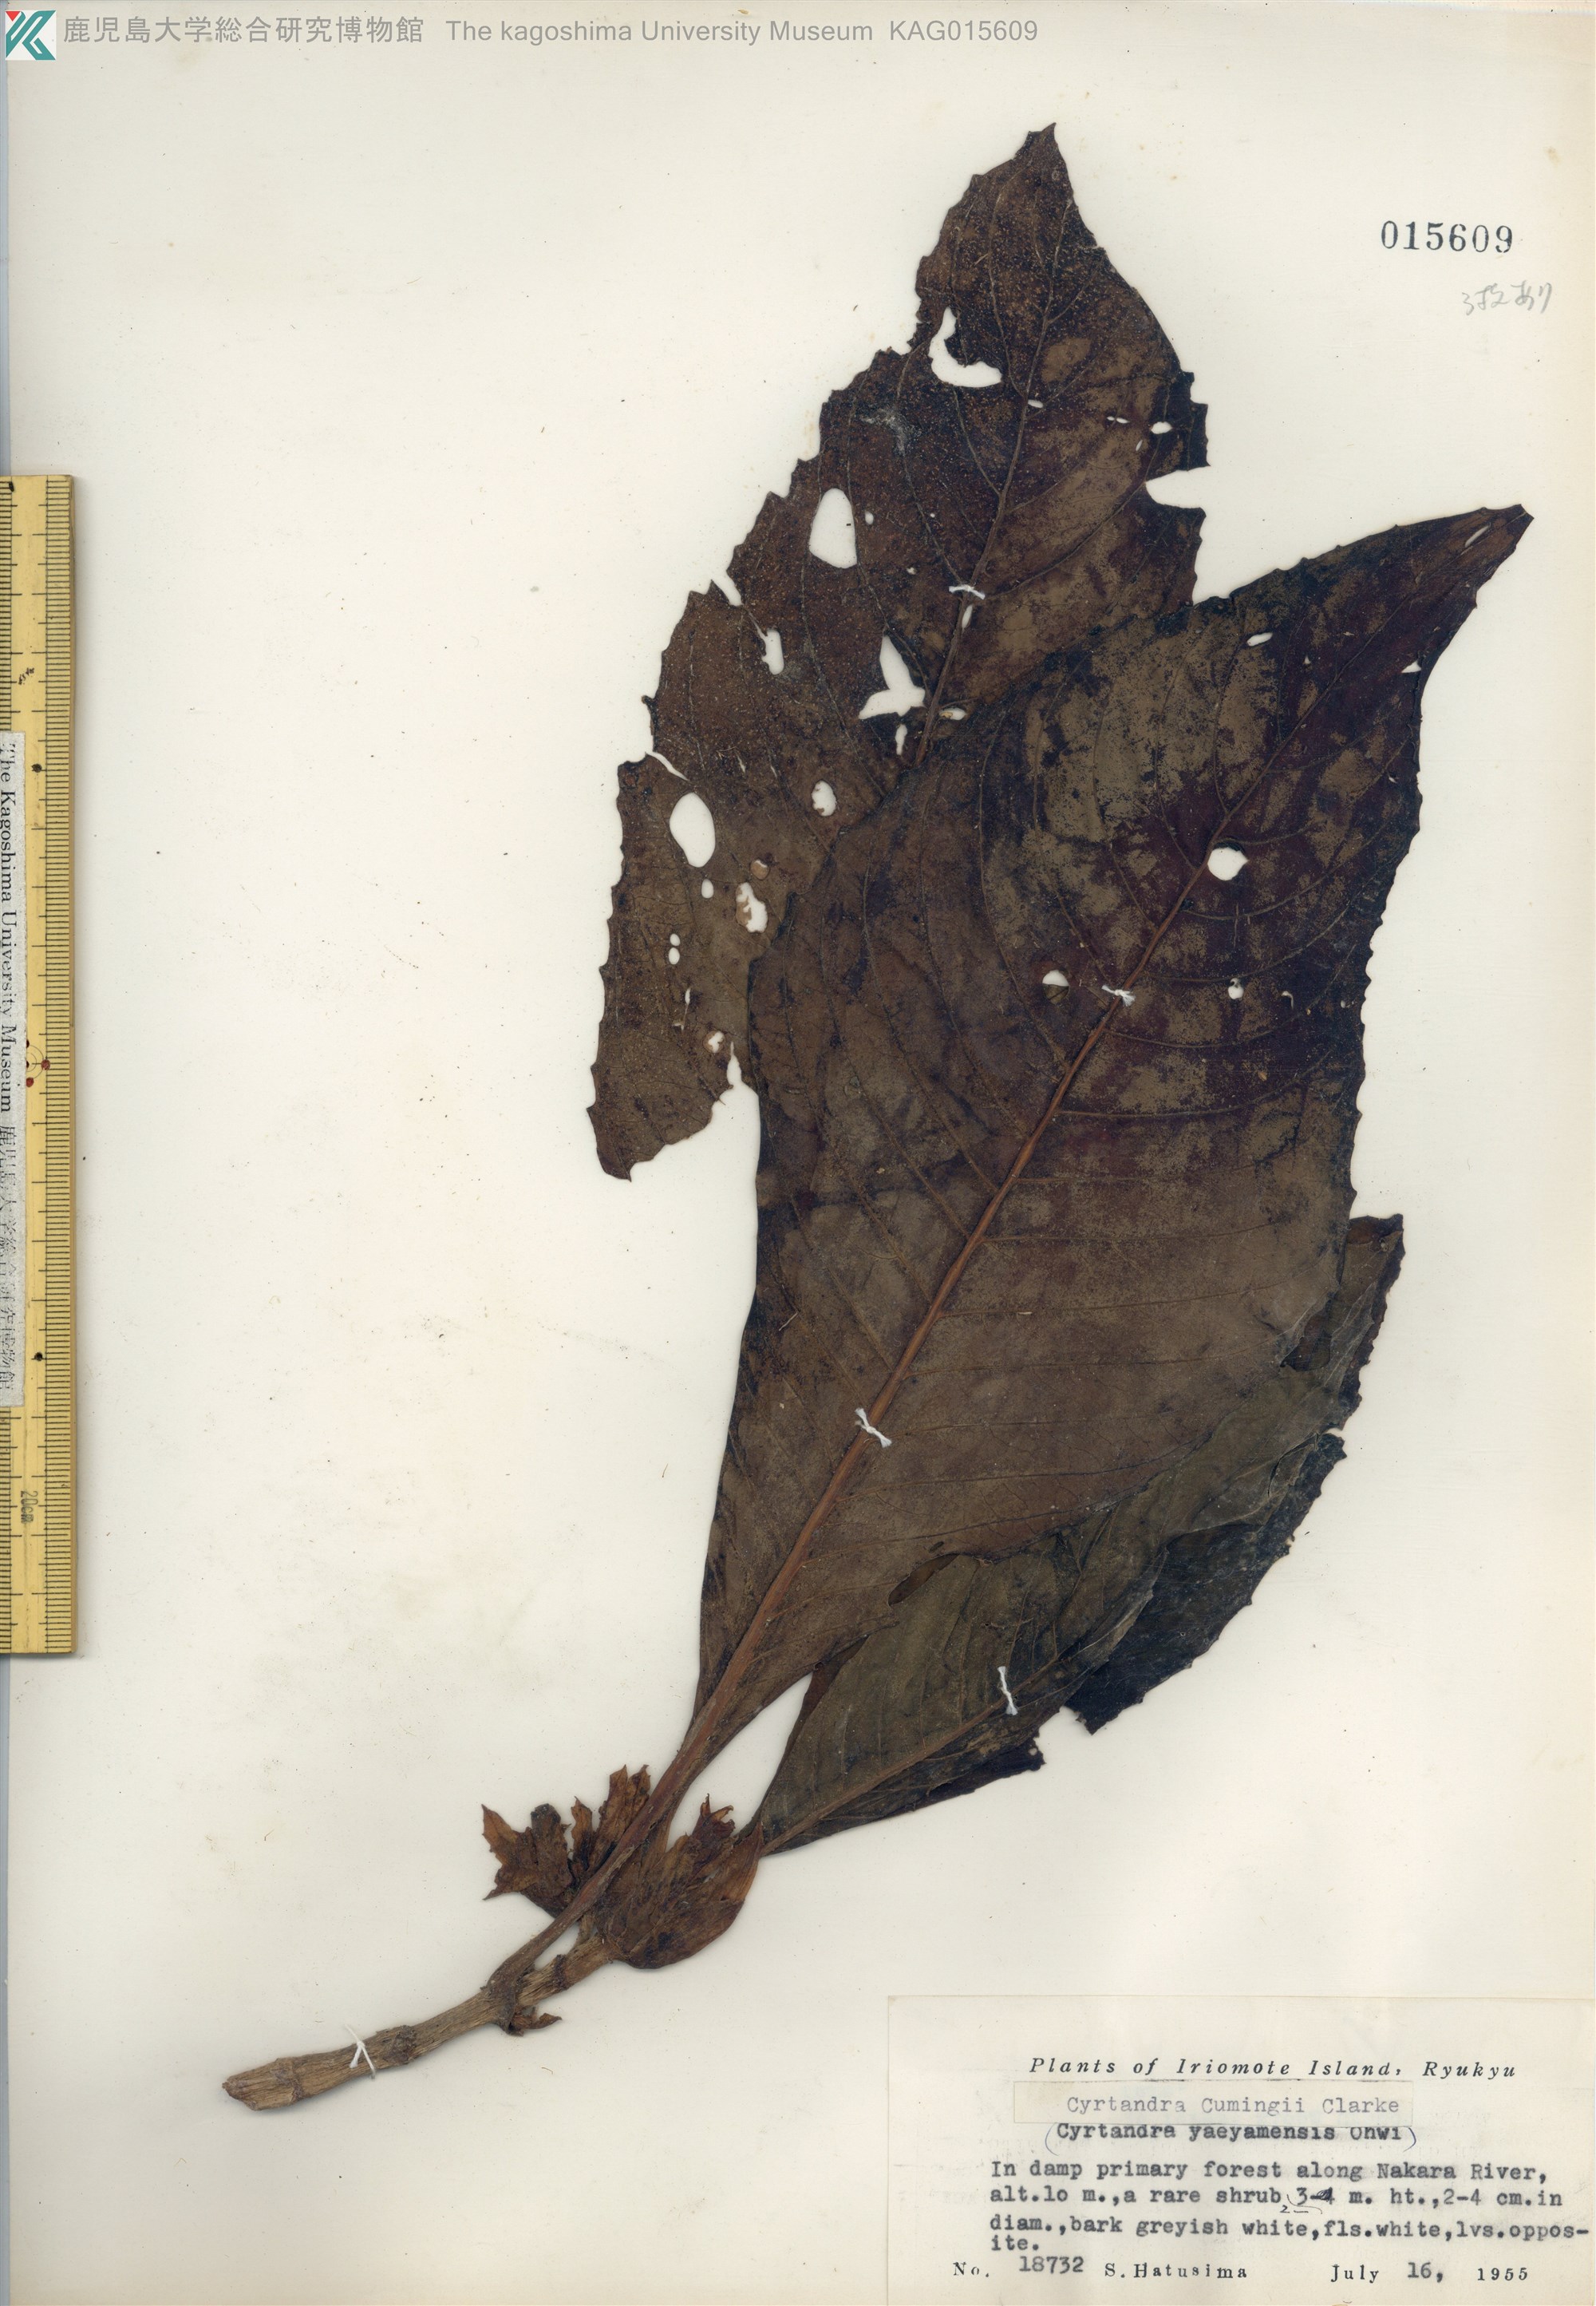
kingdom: Plantae
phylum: Tracheophyta
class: Magnoliopsida
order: Lamiales
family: Gesneriaceae
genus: Cyrtandra
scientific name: Cyrtandra yaeyamae
